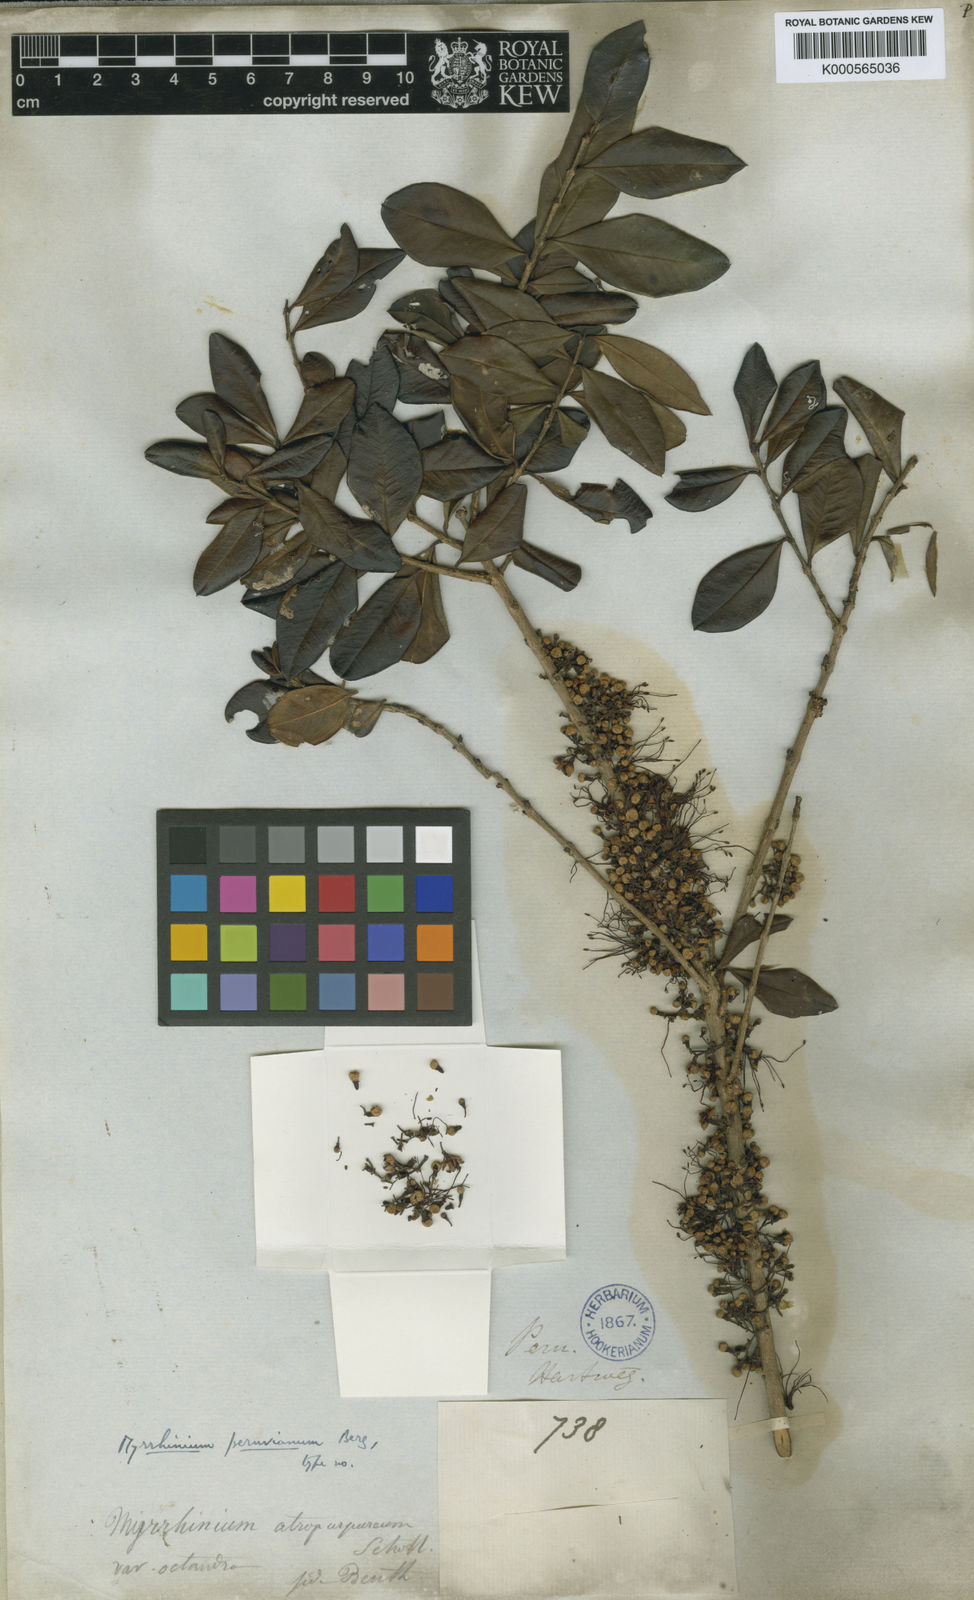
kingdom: Plantae
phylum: Tracheophyta
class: Magnoliopsida
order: Myrtales
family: Myrtaceae
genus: Myrrhinium
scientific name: Myrrhinium atropurpureum
